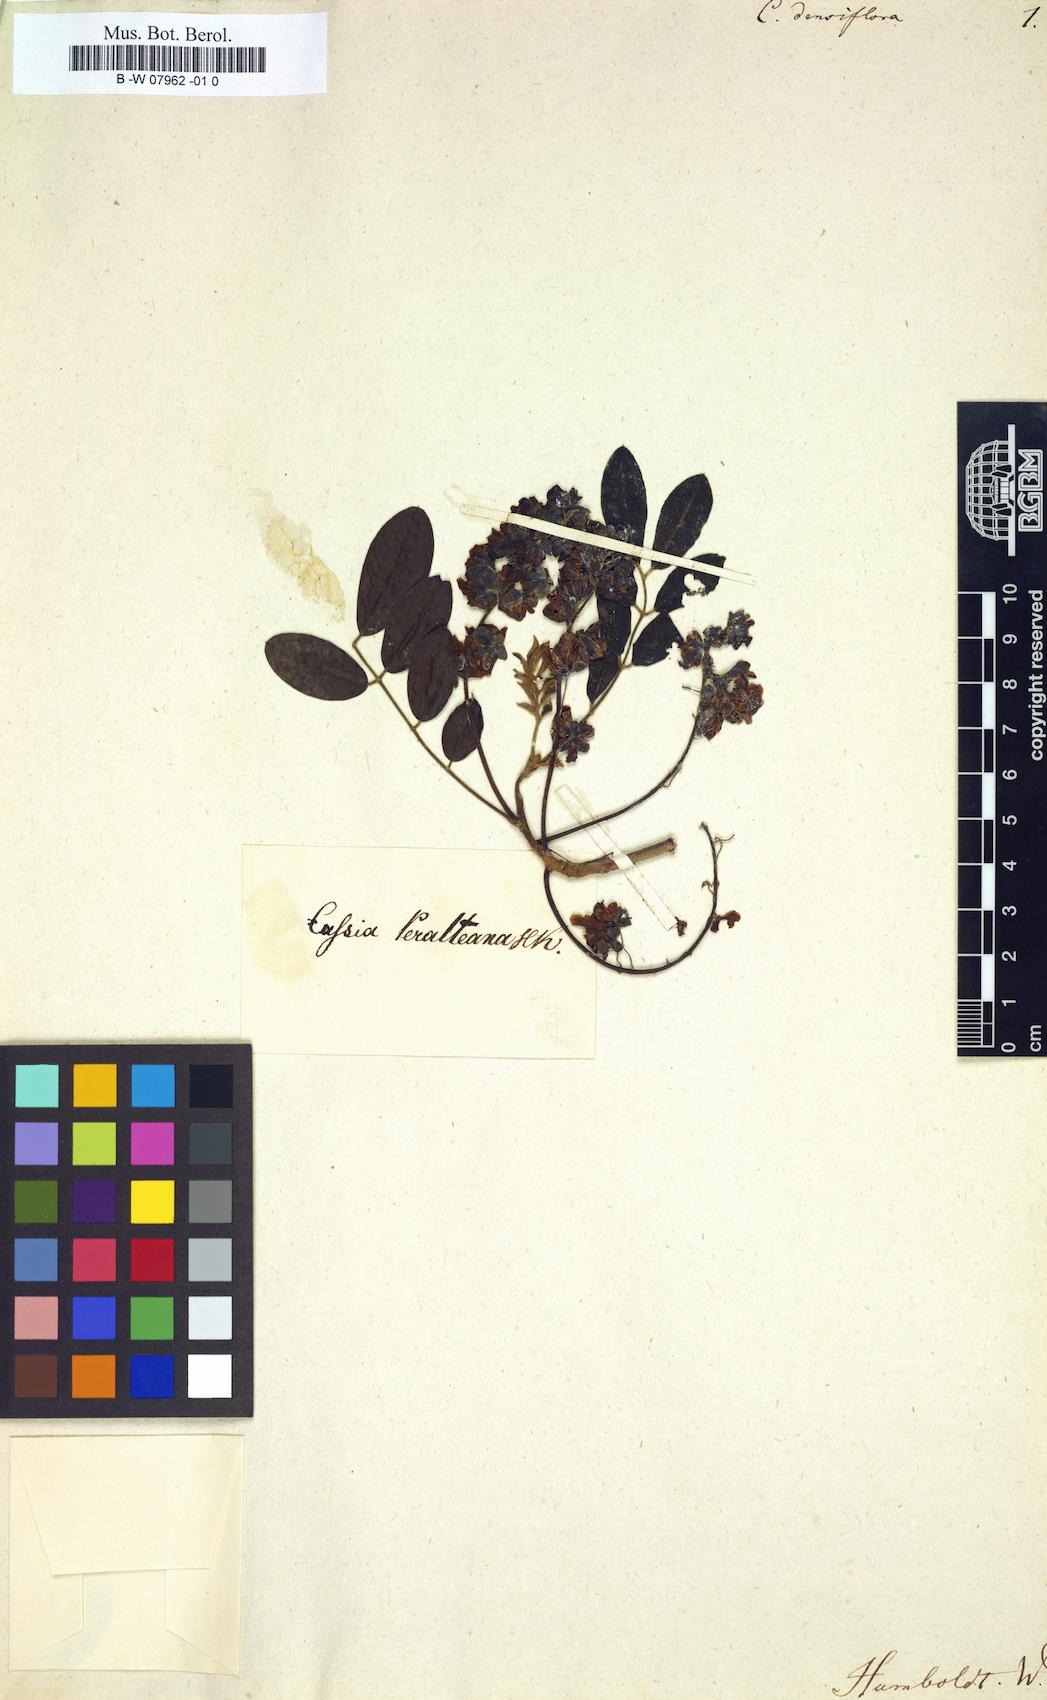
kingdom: Plantae
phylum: Tracheophyta
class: Magnoliopsida
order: Fabales
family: Fabaceae
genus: Senna
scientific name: Senna fruticosa
